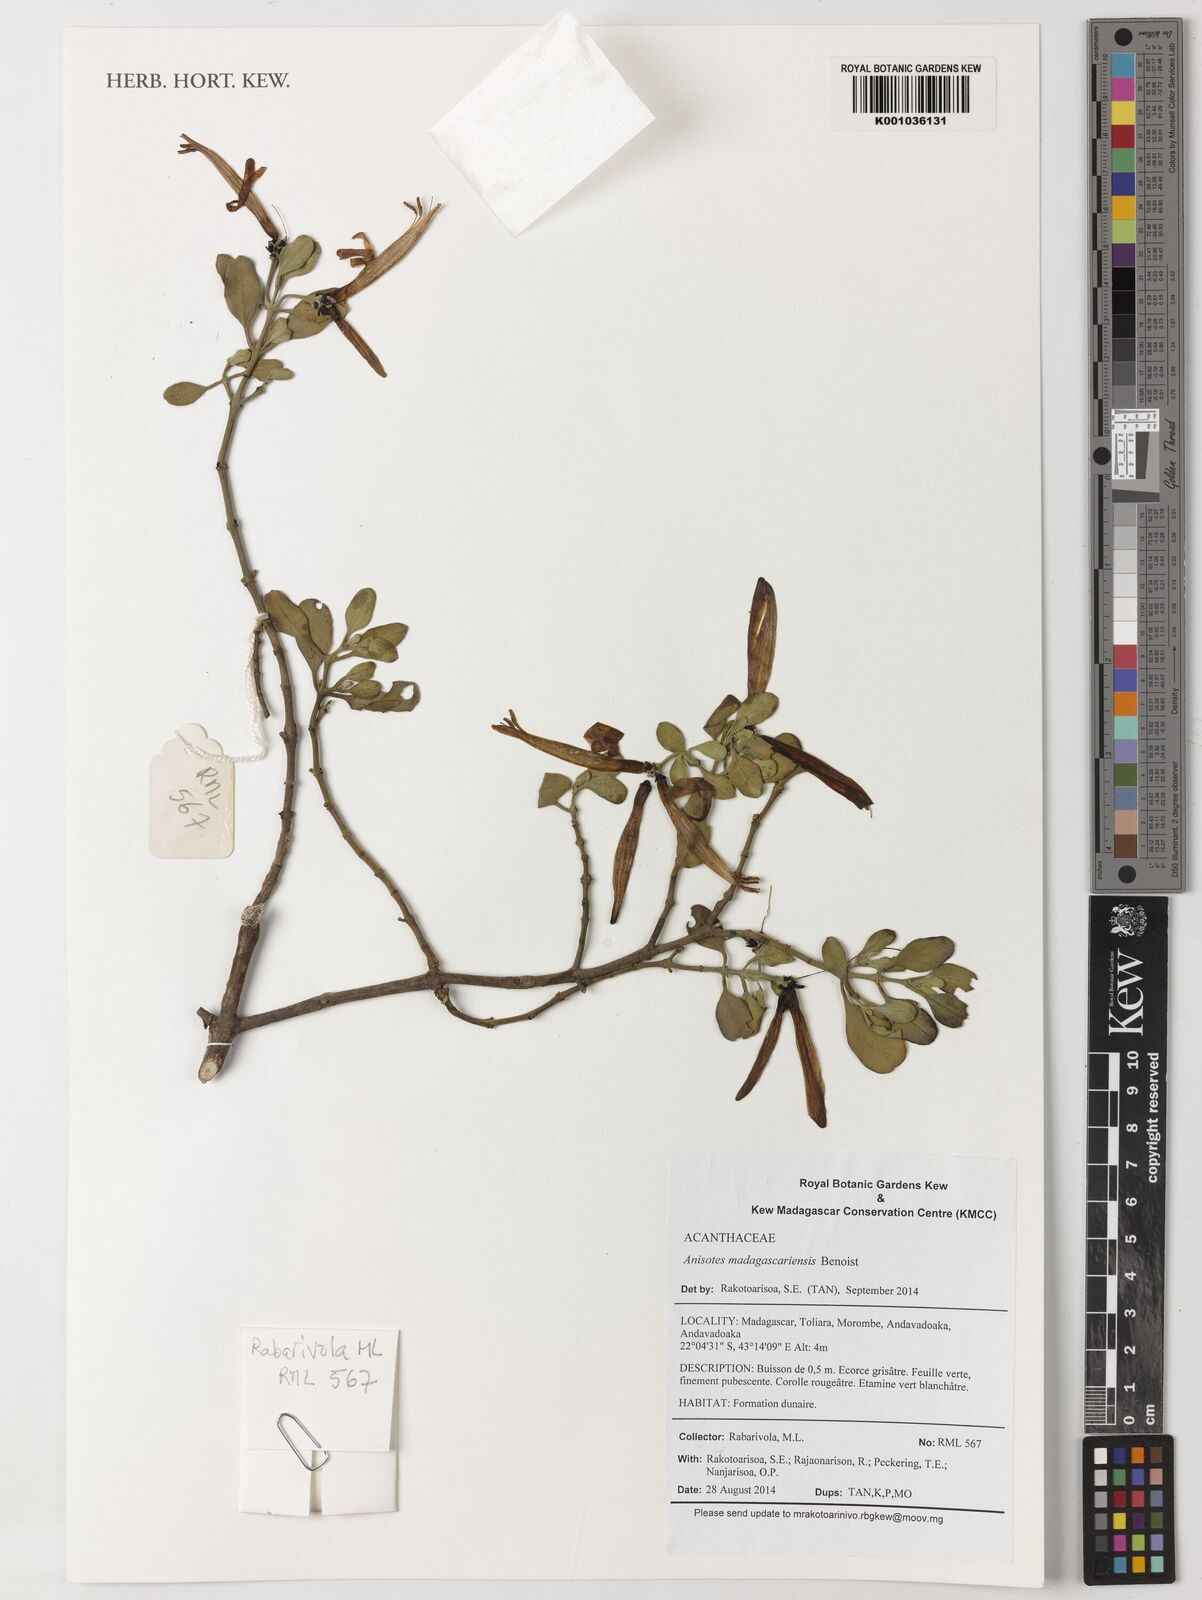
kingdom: Plantae
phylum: Tracheophyta
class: Magnoliopsida
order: Lamiales
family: Acanthaceae
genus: Anisotes
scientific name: Anisotes madagascariensis
